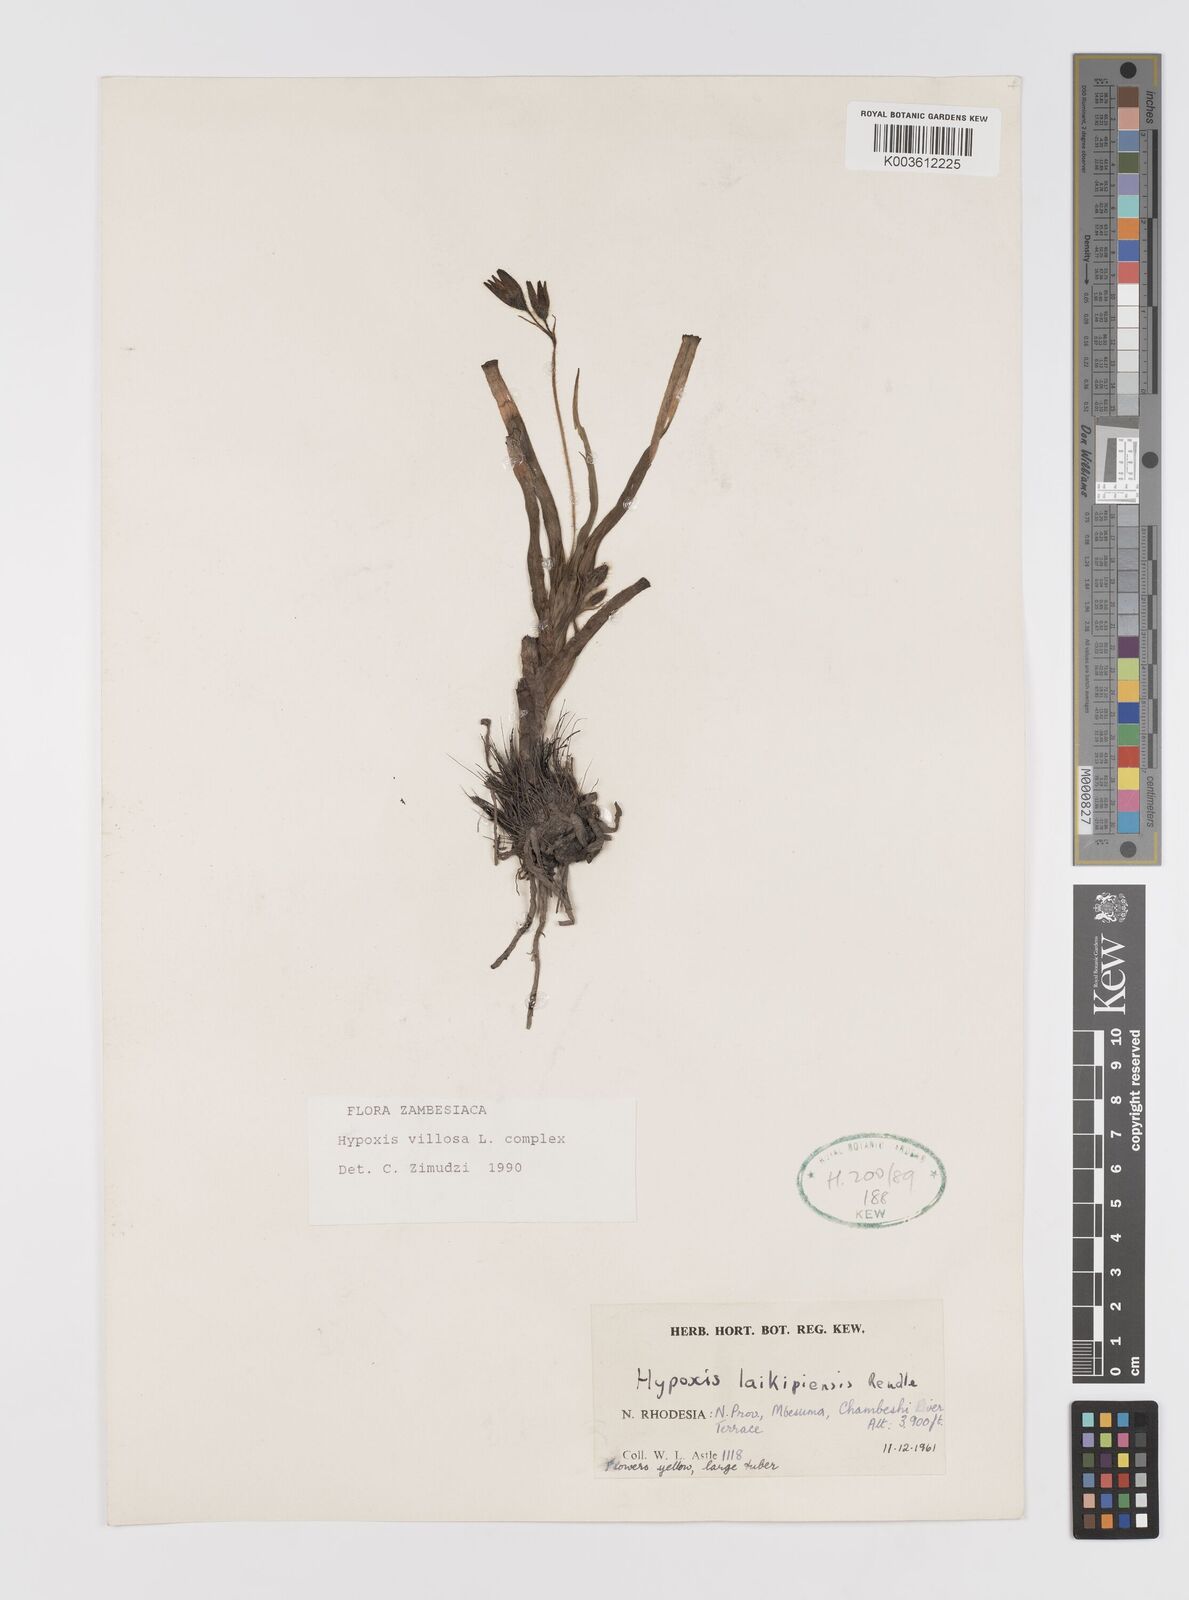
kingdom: Plantae
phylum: Tracheophyta
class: Liliopsida
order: Asparagales
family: Hypoxidaceae
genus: Hypoxis
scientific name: Hypoxis angustifolia
